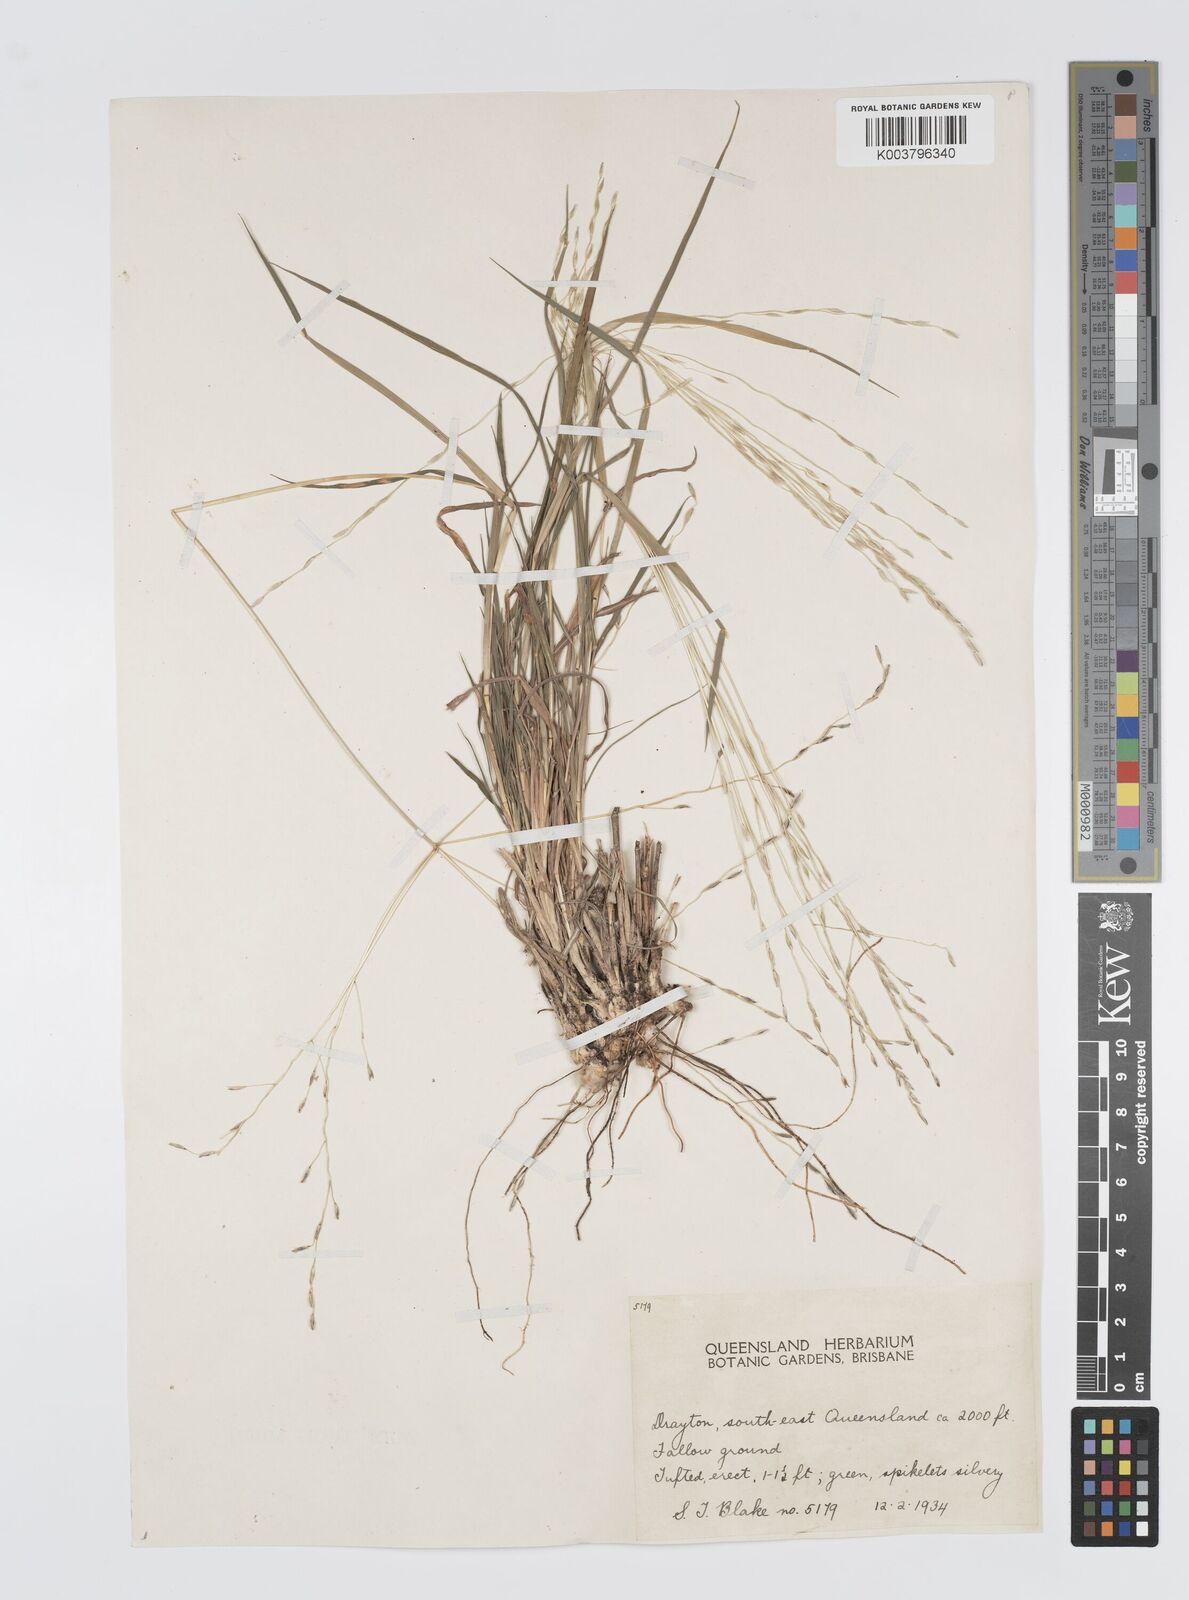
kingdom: Plantae
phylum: Tracheophyta
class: Liliopsida
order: Poales
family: Poaceae
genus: Digitaria
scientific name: Digitaria divaricatissima
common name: Crabgrass
